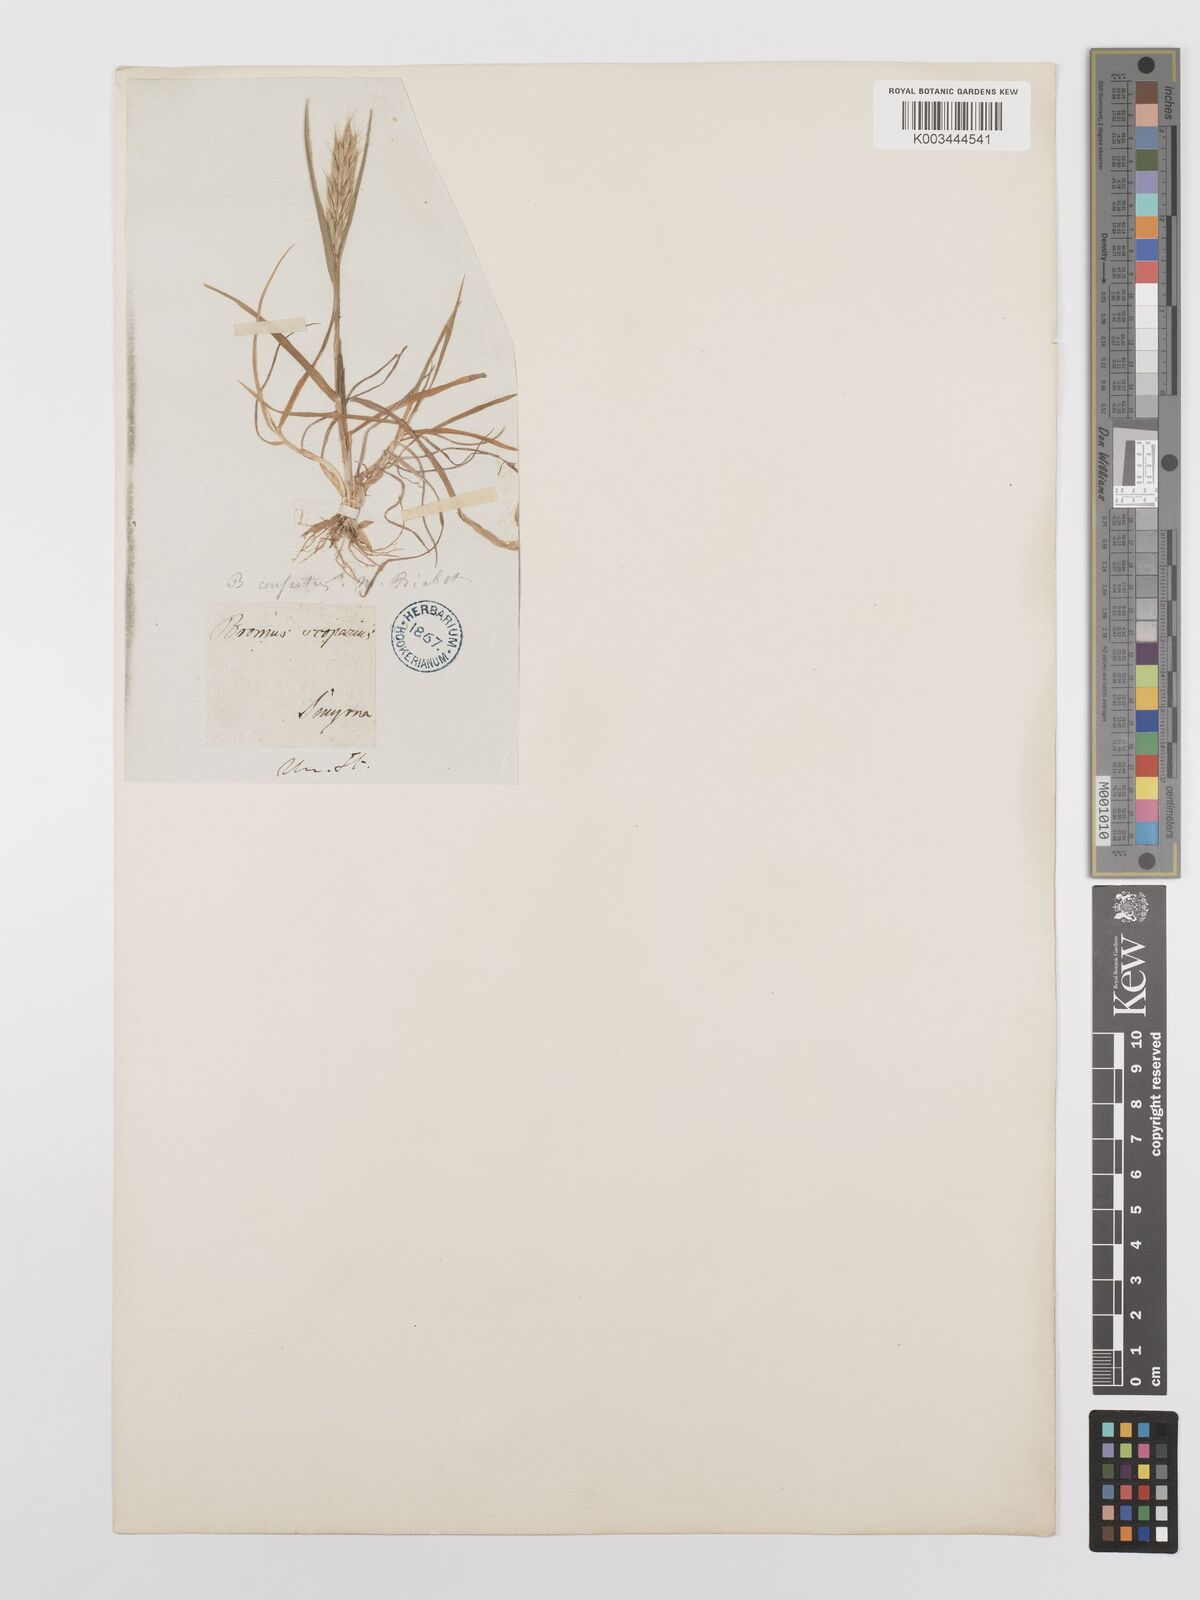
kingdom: Plantae
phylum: Tracheophyta
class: Liliopsida
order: Poales
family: Poaceae
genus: Bromus
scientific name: Bromus scoparius
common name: Broom brome
